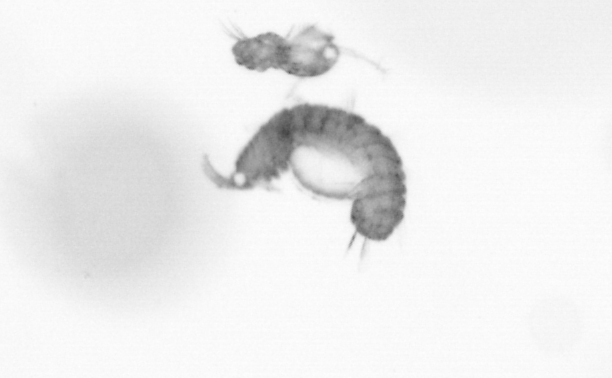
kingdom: Animalia
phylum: Annelida
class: Polychaeta
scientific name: Polychaeta
